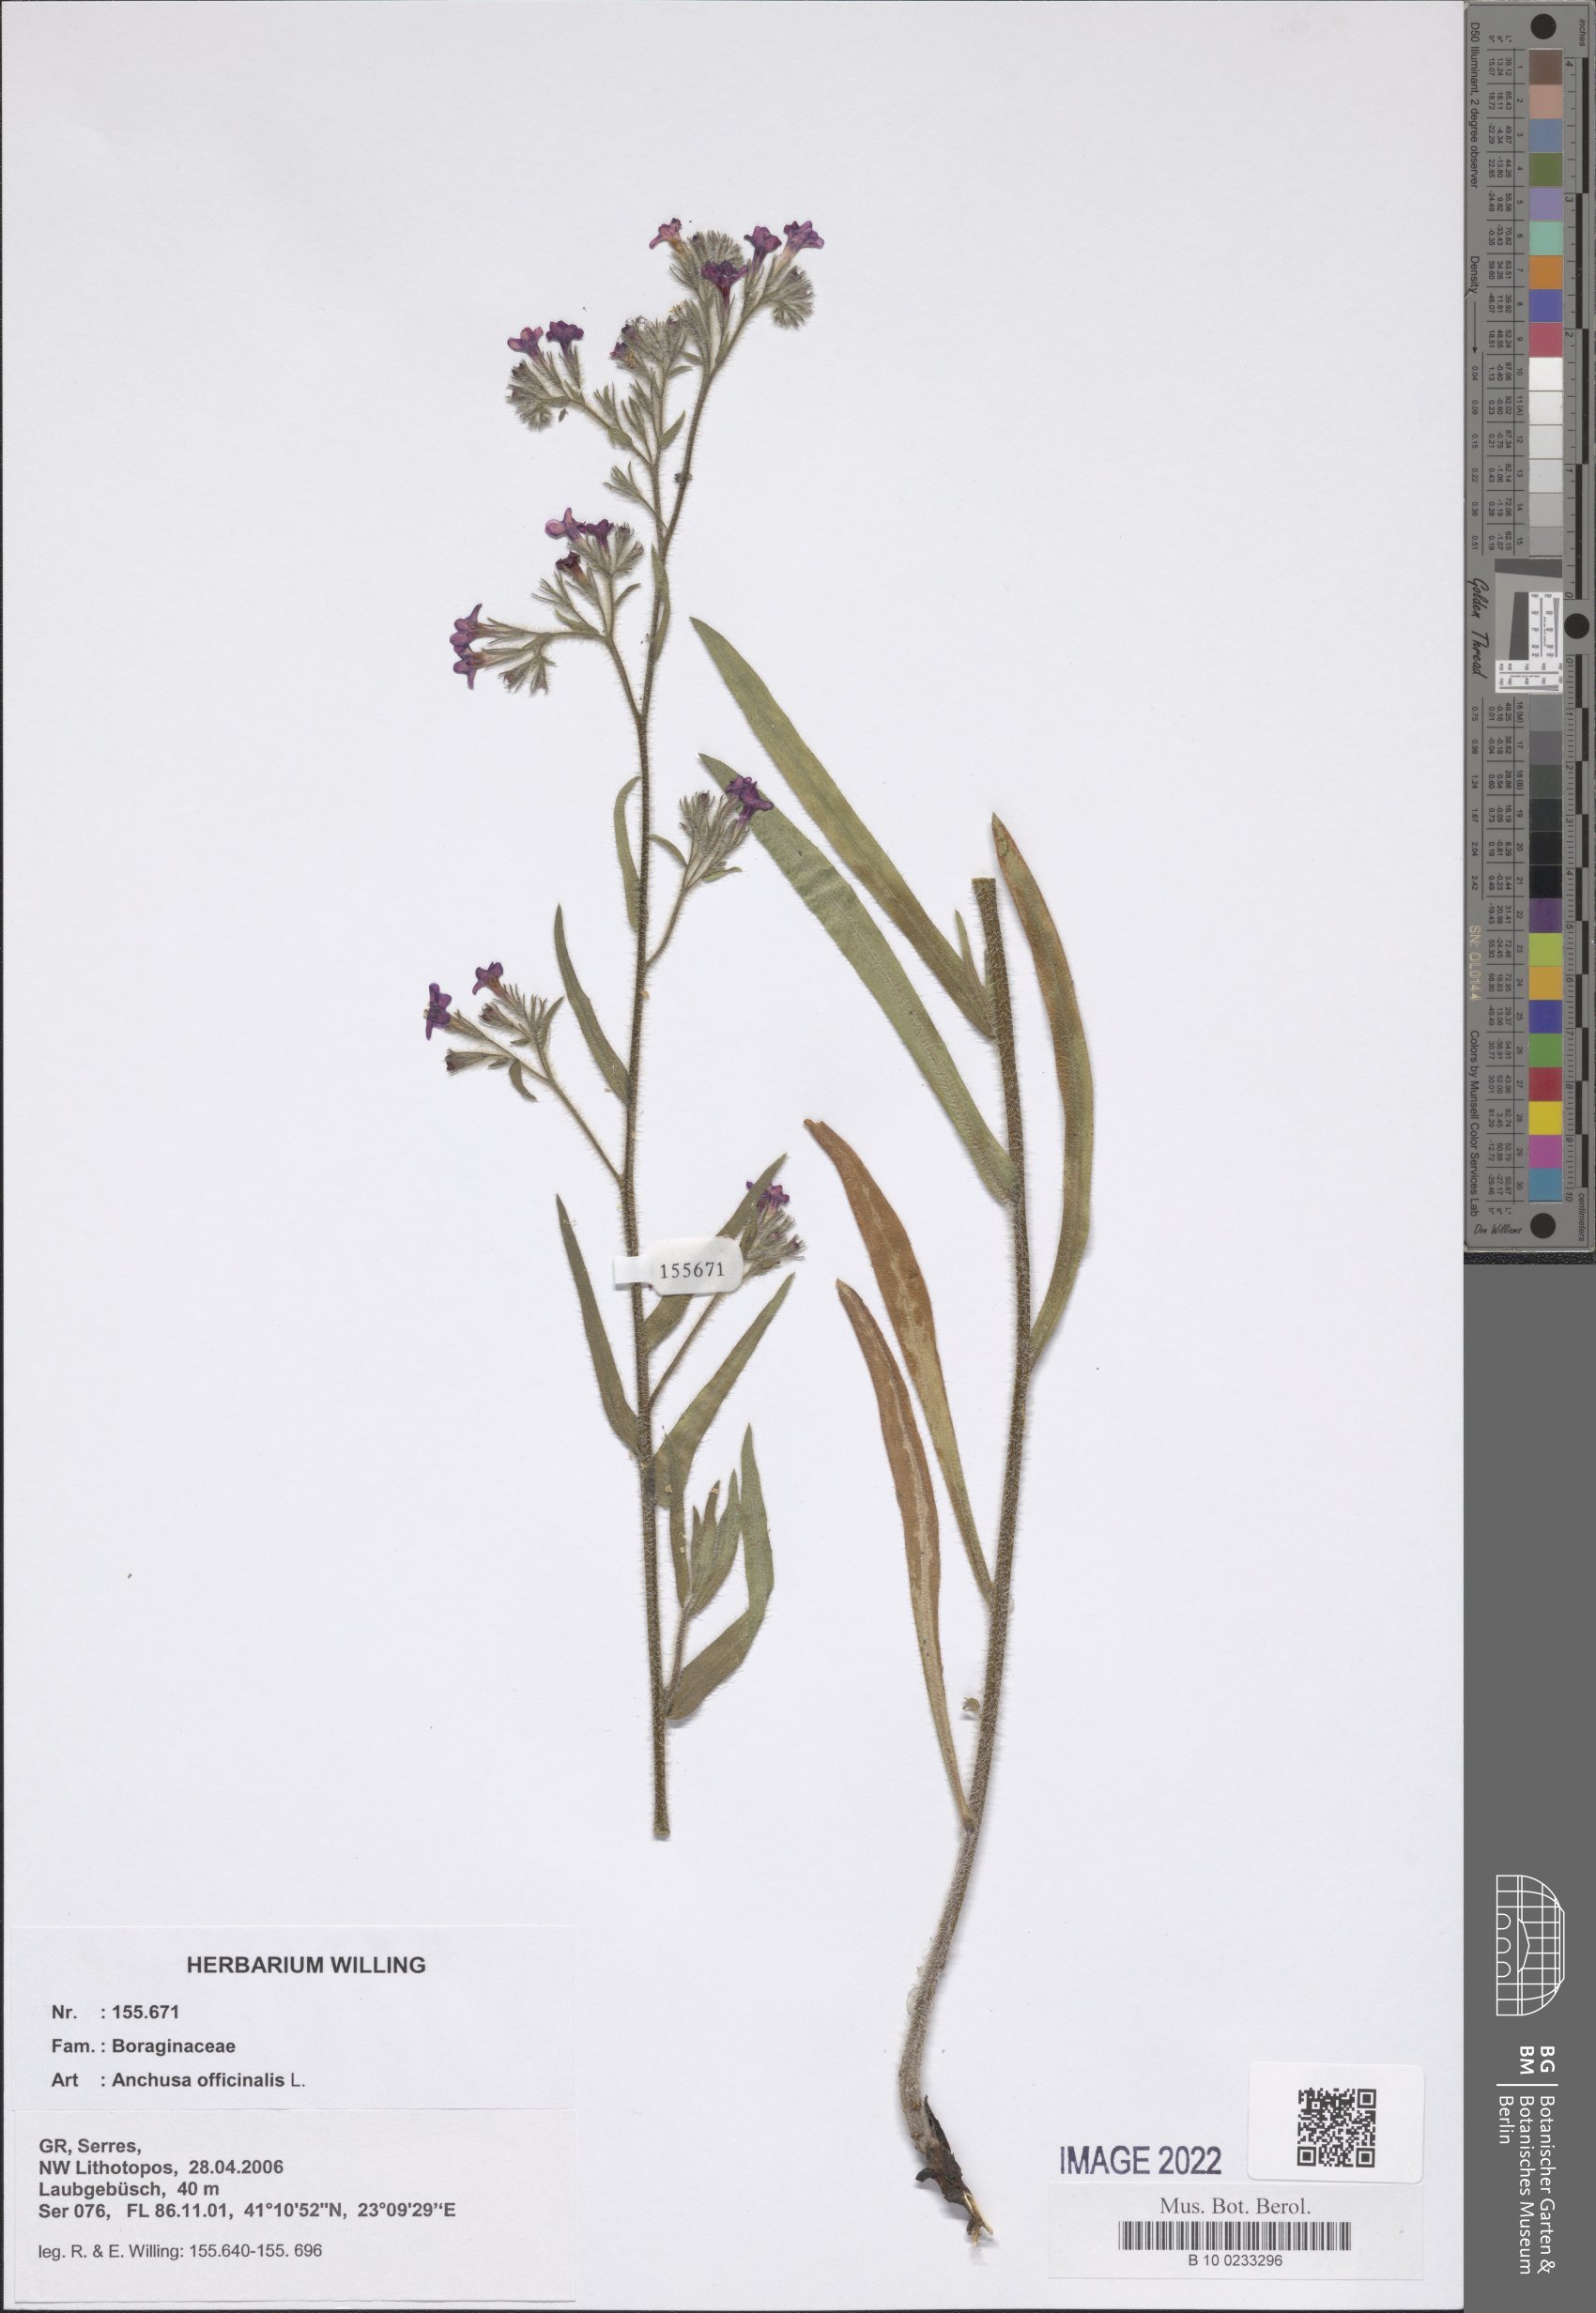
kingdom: Plantae
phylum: Tracheophyta
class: Magnoliopsida
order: Boraginales
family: Boraginaceae
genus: Anchusa
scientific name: Anchusa officinalis
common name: Alkanet
